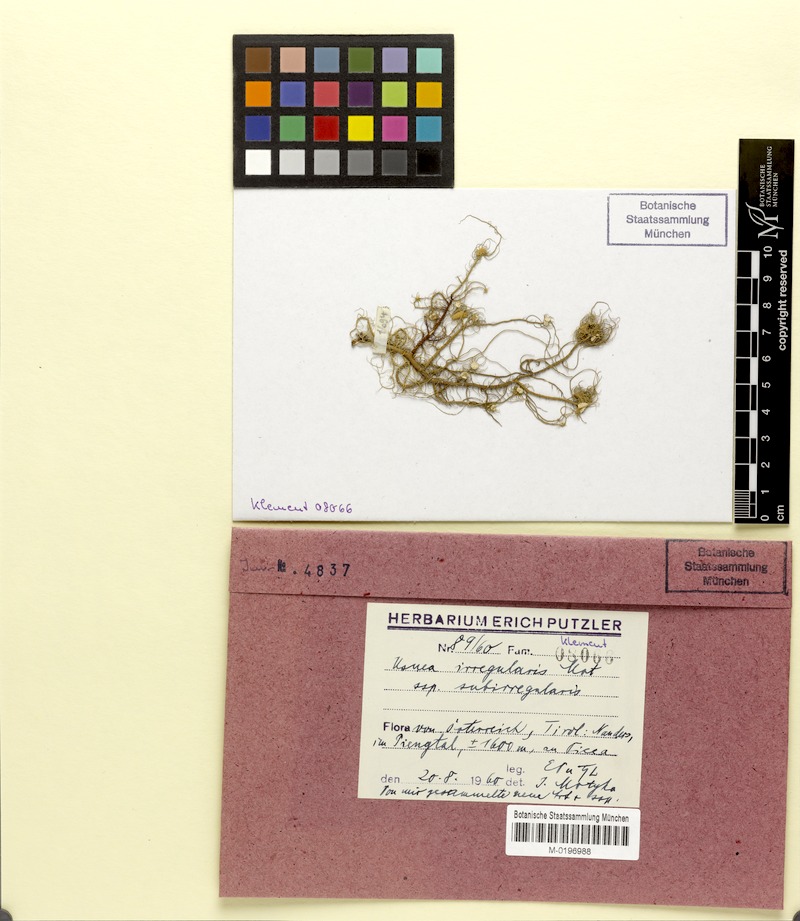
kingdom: Fungi
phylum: Ascomycota
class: Lecanoromycetes
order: Lecanorales
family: Parmeliaceae
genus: Usnea
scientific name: Usnea
